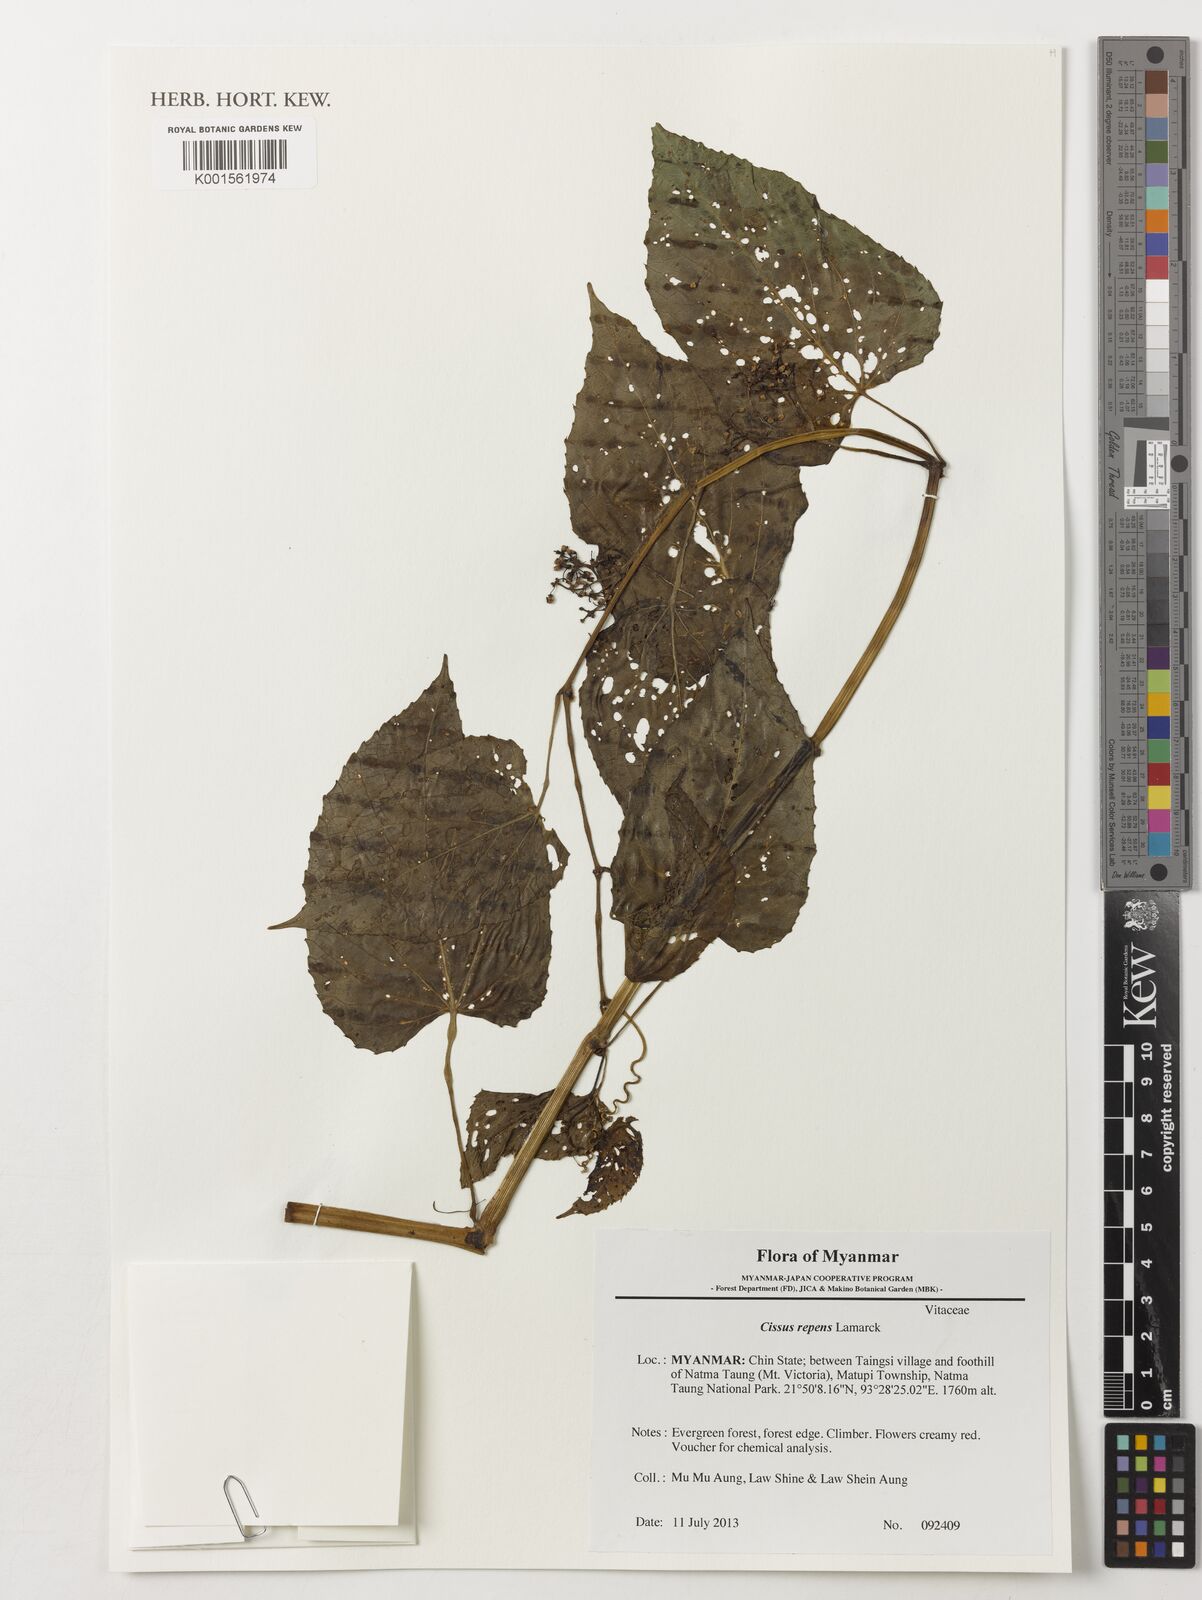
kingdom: Plantae
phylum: Tracheophyta
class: Magnoliopsida
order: Vitales
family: Vitaceae
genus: Cissus
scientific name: Cissus repens
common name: Cissus
